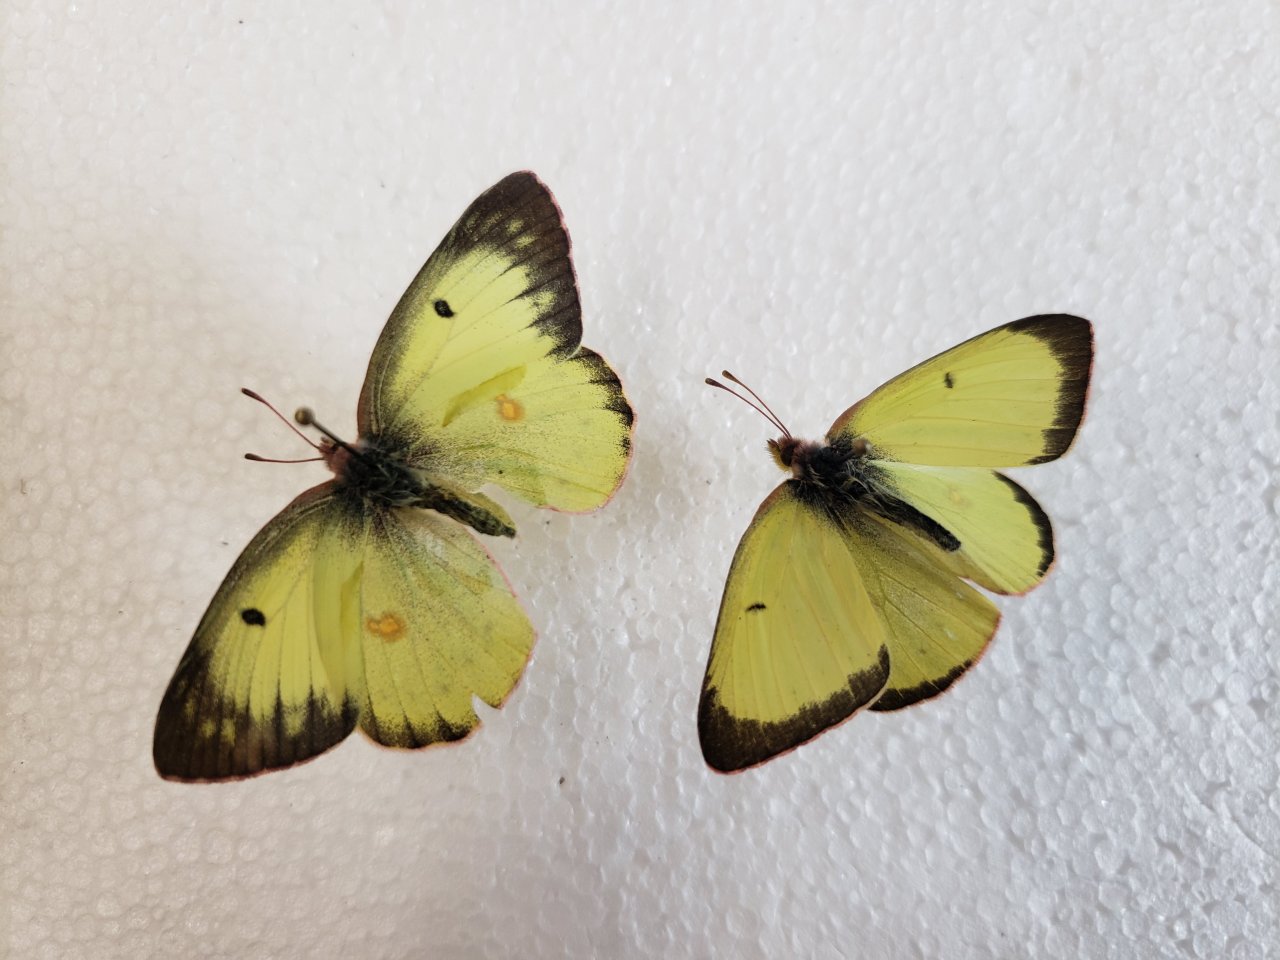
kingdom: Animalia
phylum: Arthropoda
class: Insecta
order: Lepidoptera
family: Pieridae
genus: Colias
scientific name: Colias philodice
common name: Clouded Sulphur
